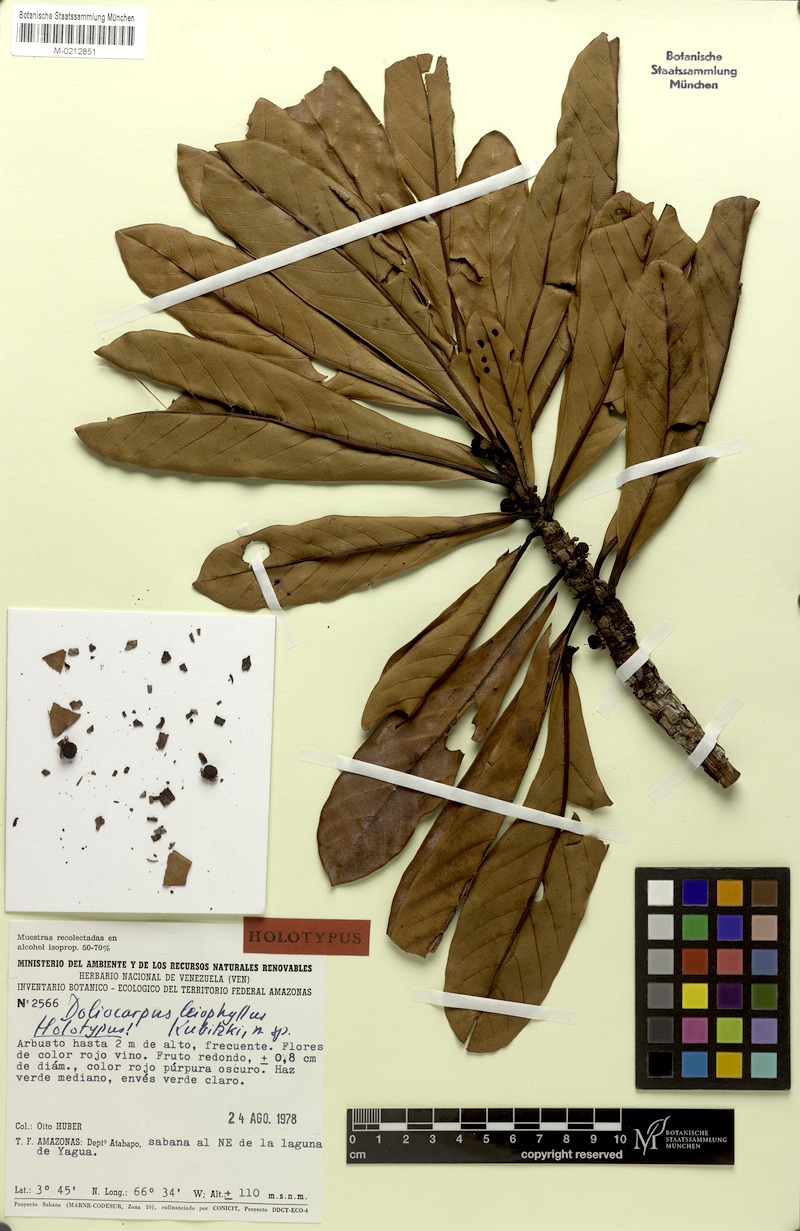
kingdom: Plantae
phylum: Tracheophyta
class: Magnoliopsida
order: Dilleniales
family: Dilleniaceae
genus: Doliocarpus
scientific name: Doliocarpus leiophyllus
